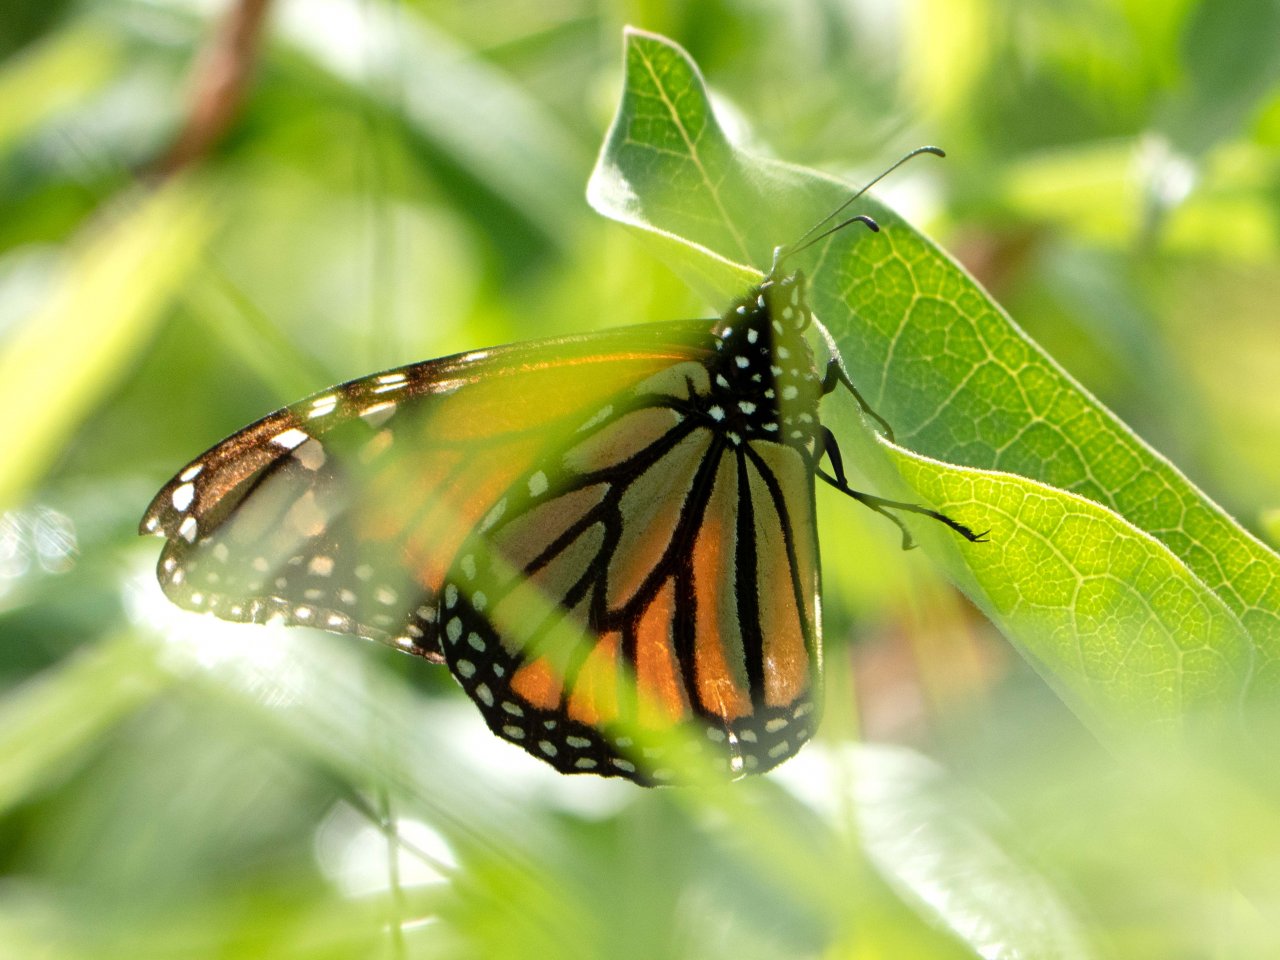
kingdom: Animalia
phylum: Arthropoda
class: Insecta
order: Lepidoptera
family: Nymphalidae
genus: Danaus
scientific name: Danaus plexippus
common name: Monarch
